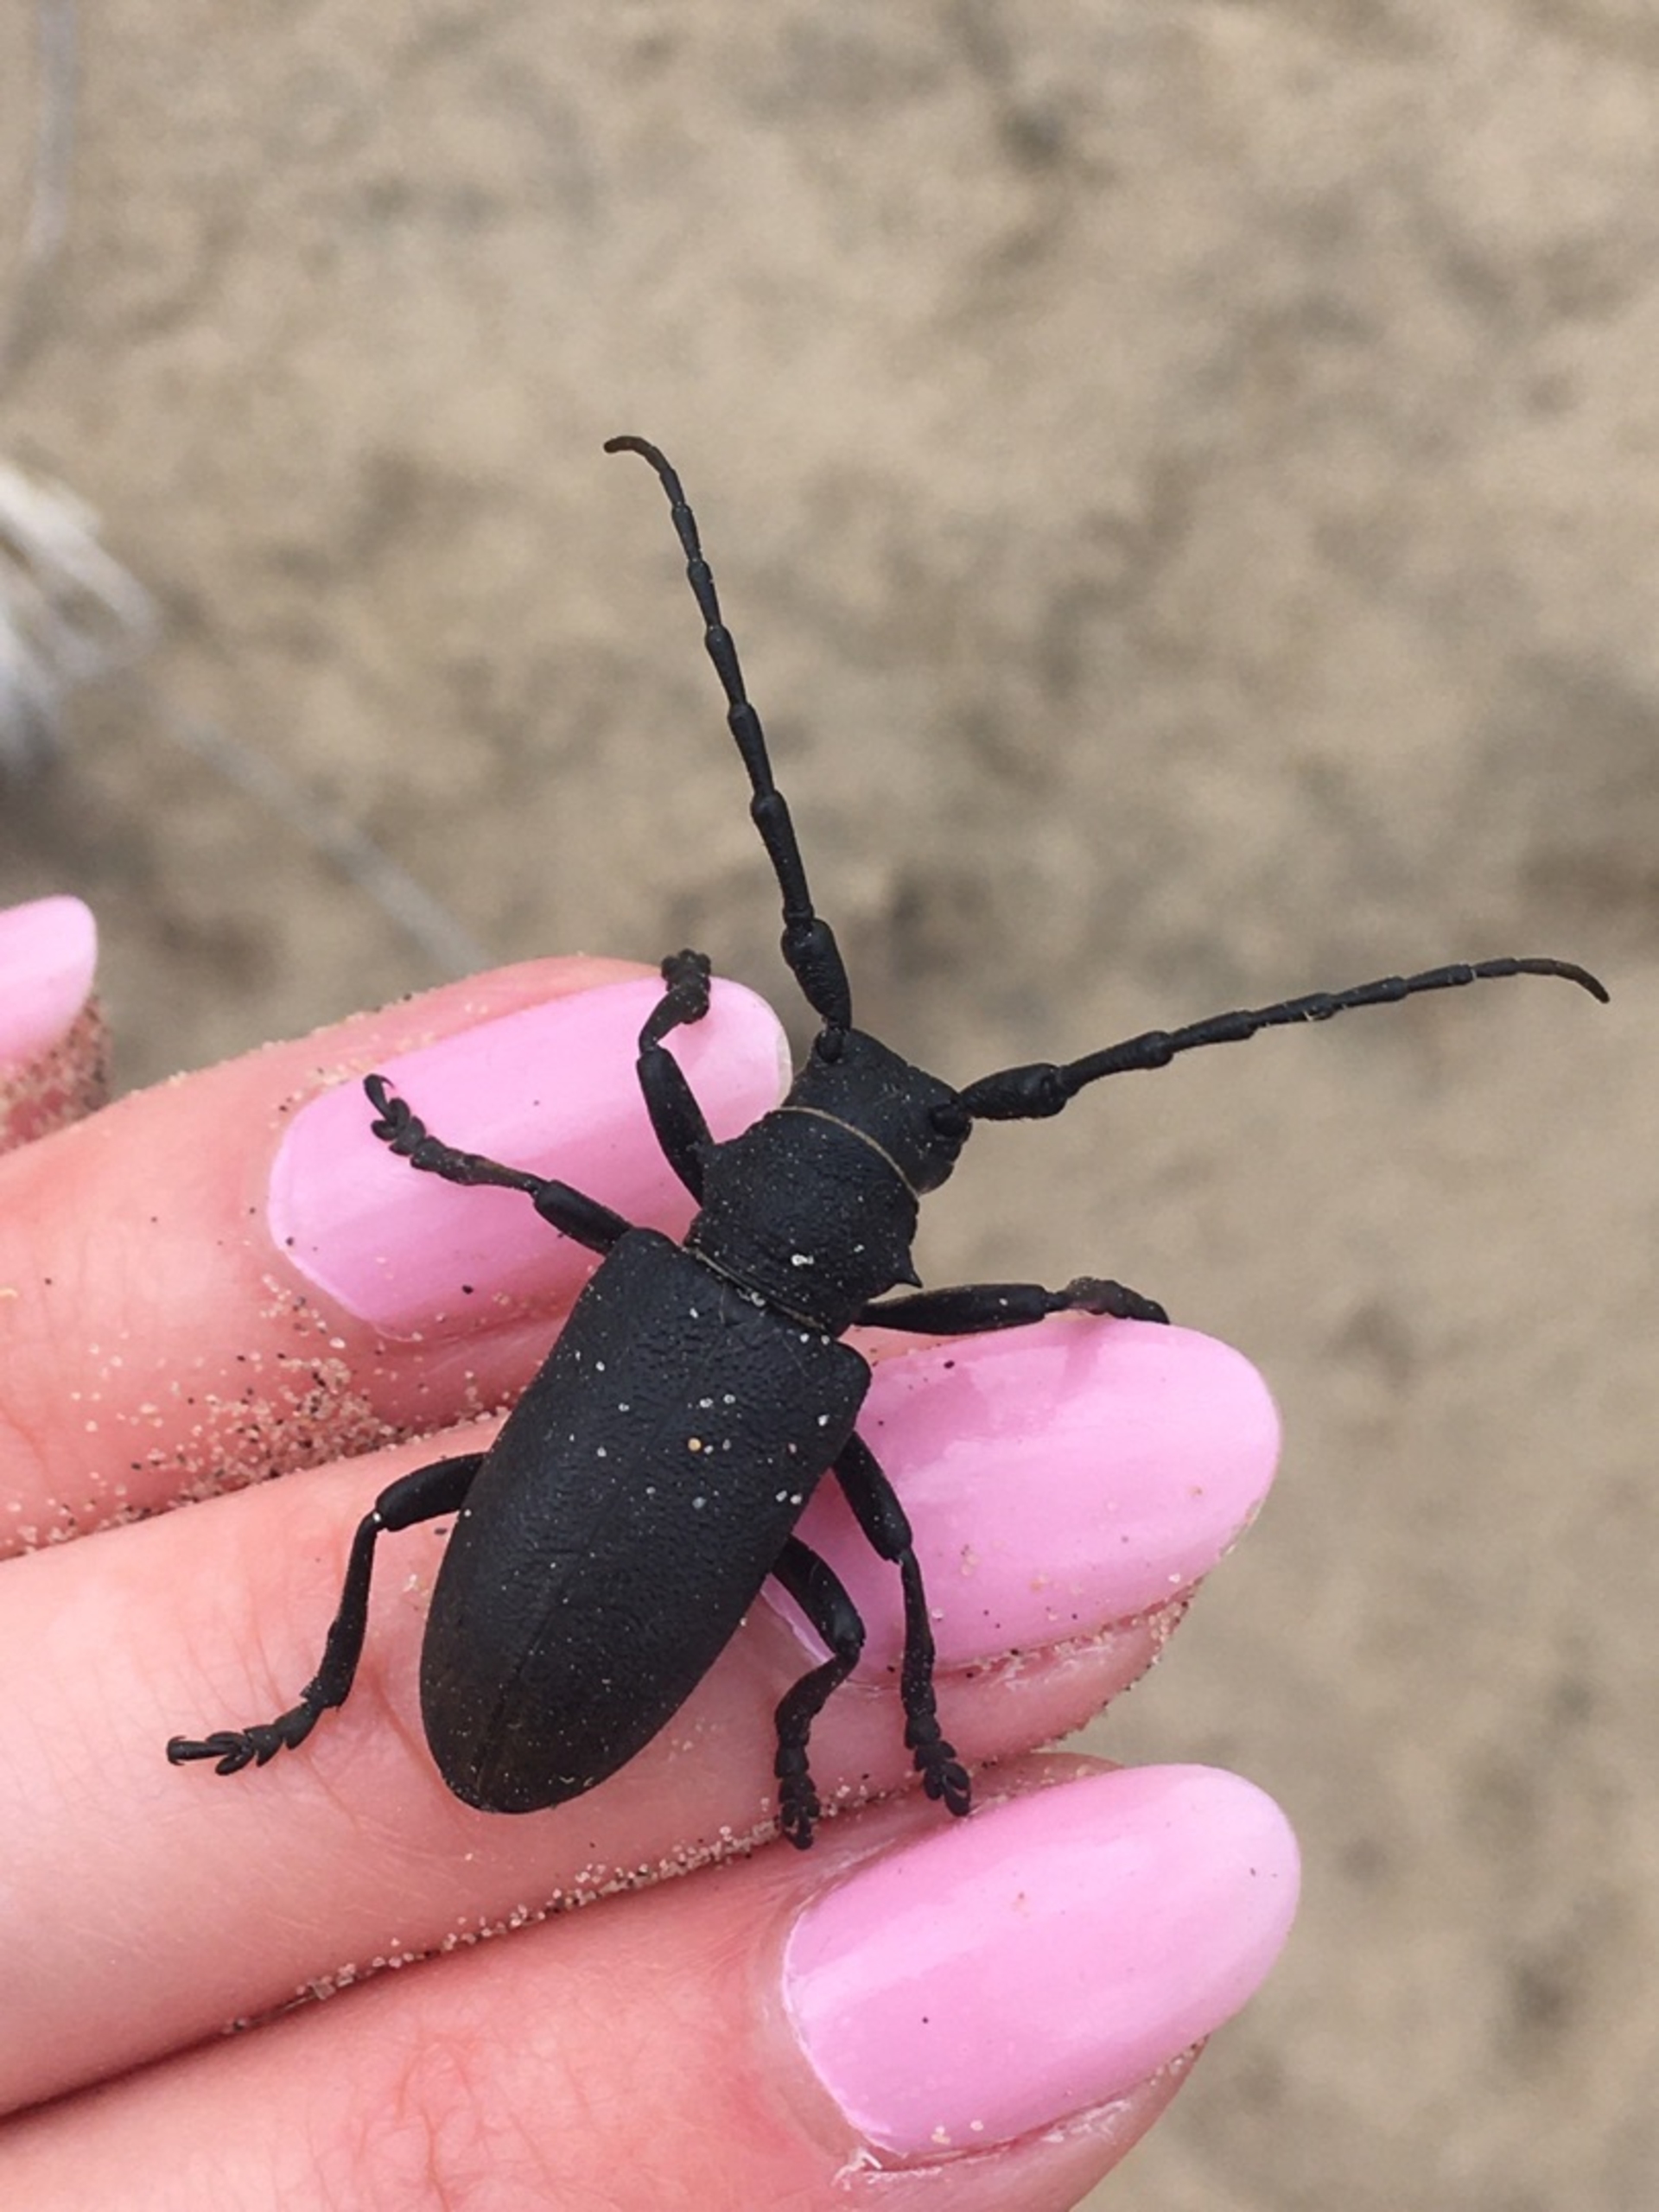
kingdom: Animalia
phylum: Arthropoda
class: Insecta
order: Coleoptera
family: Cerambycidae
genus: Lamia
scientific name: Lamia textor
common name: Væver
